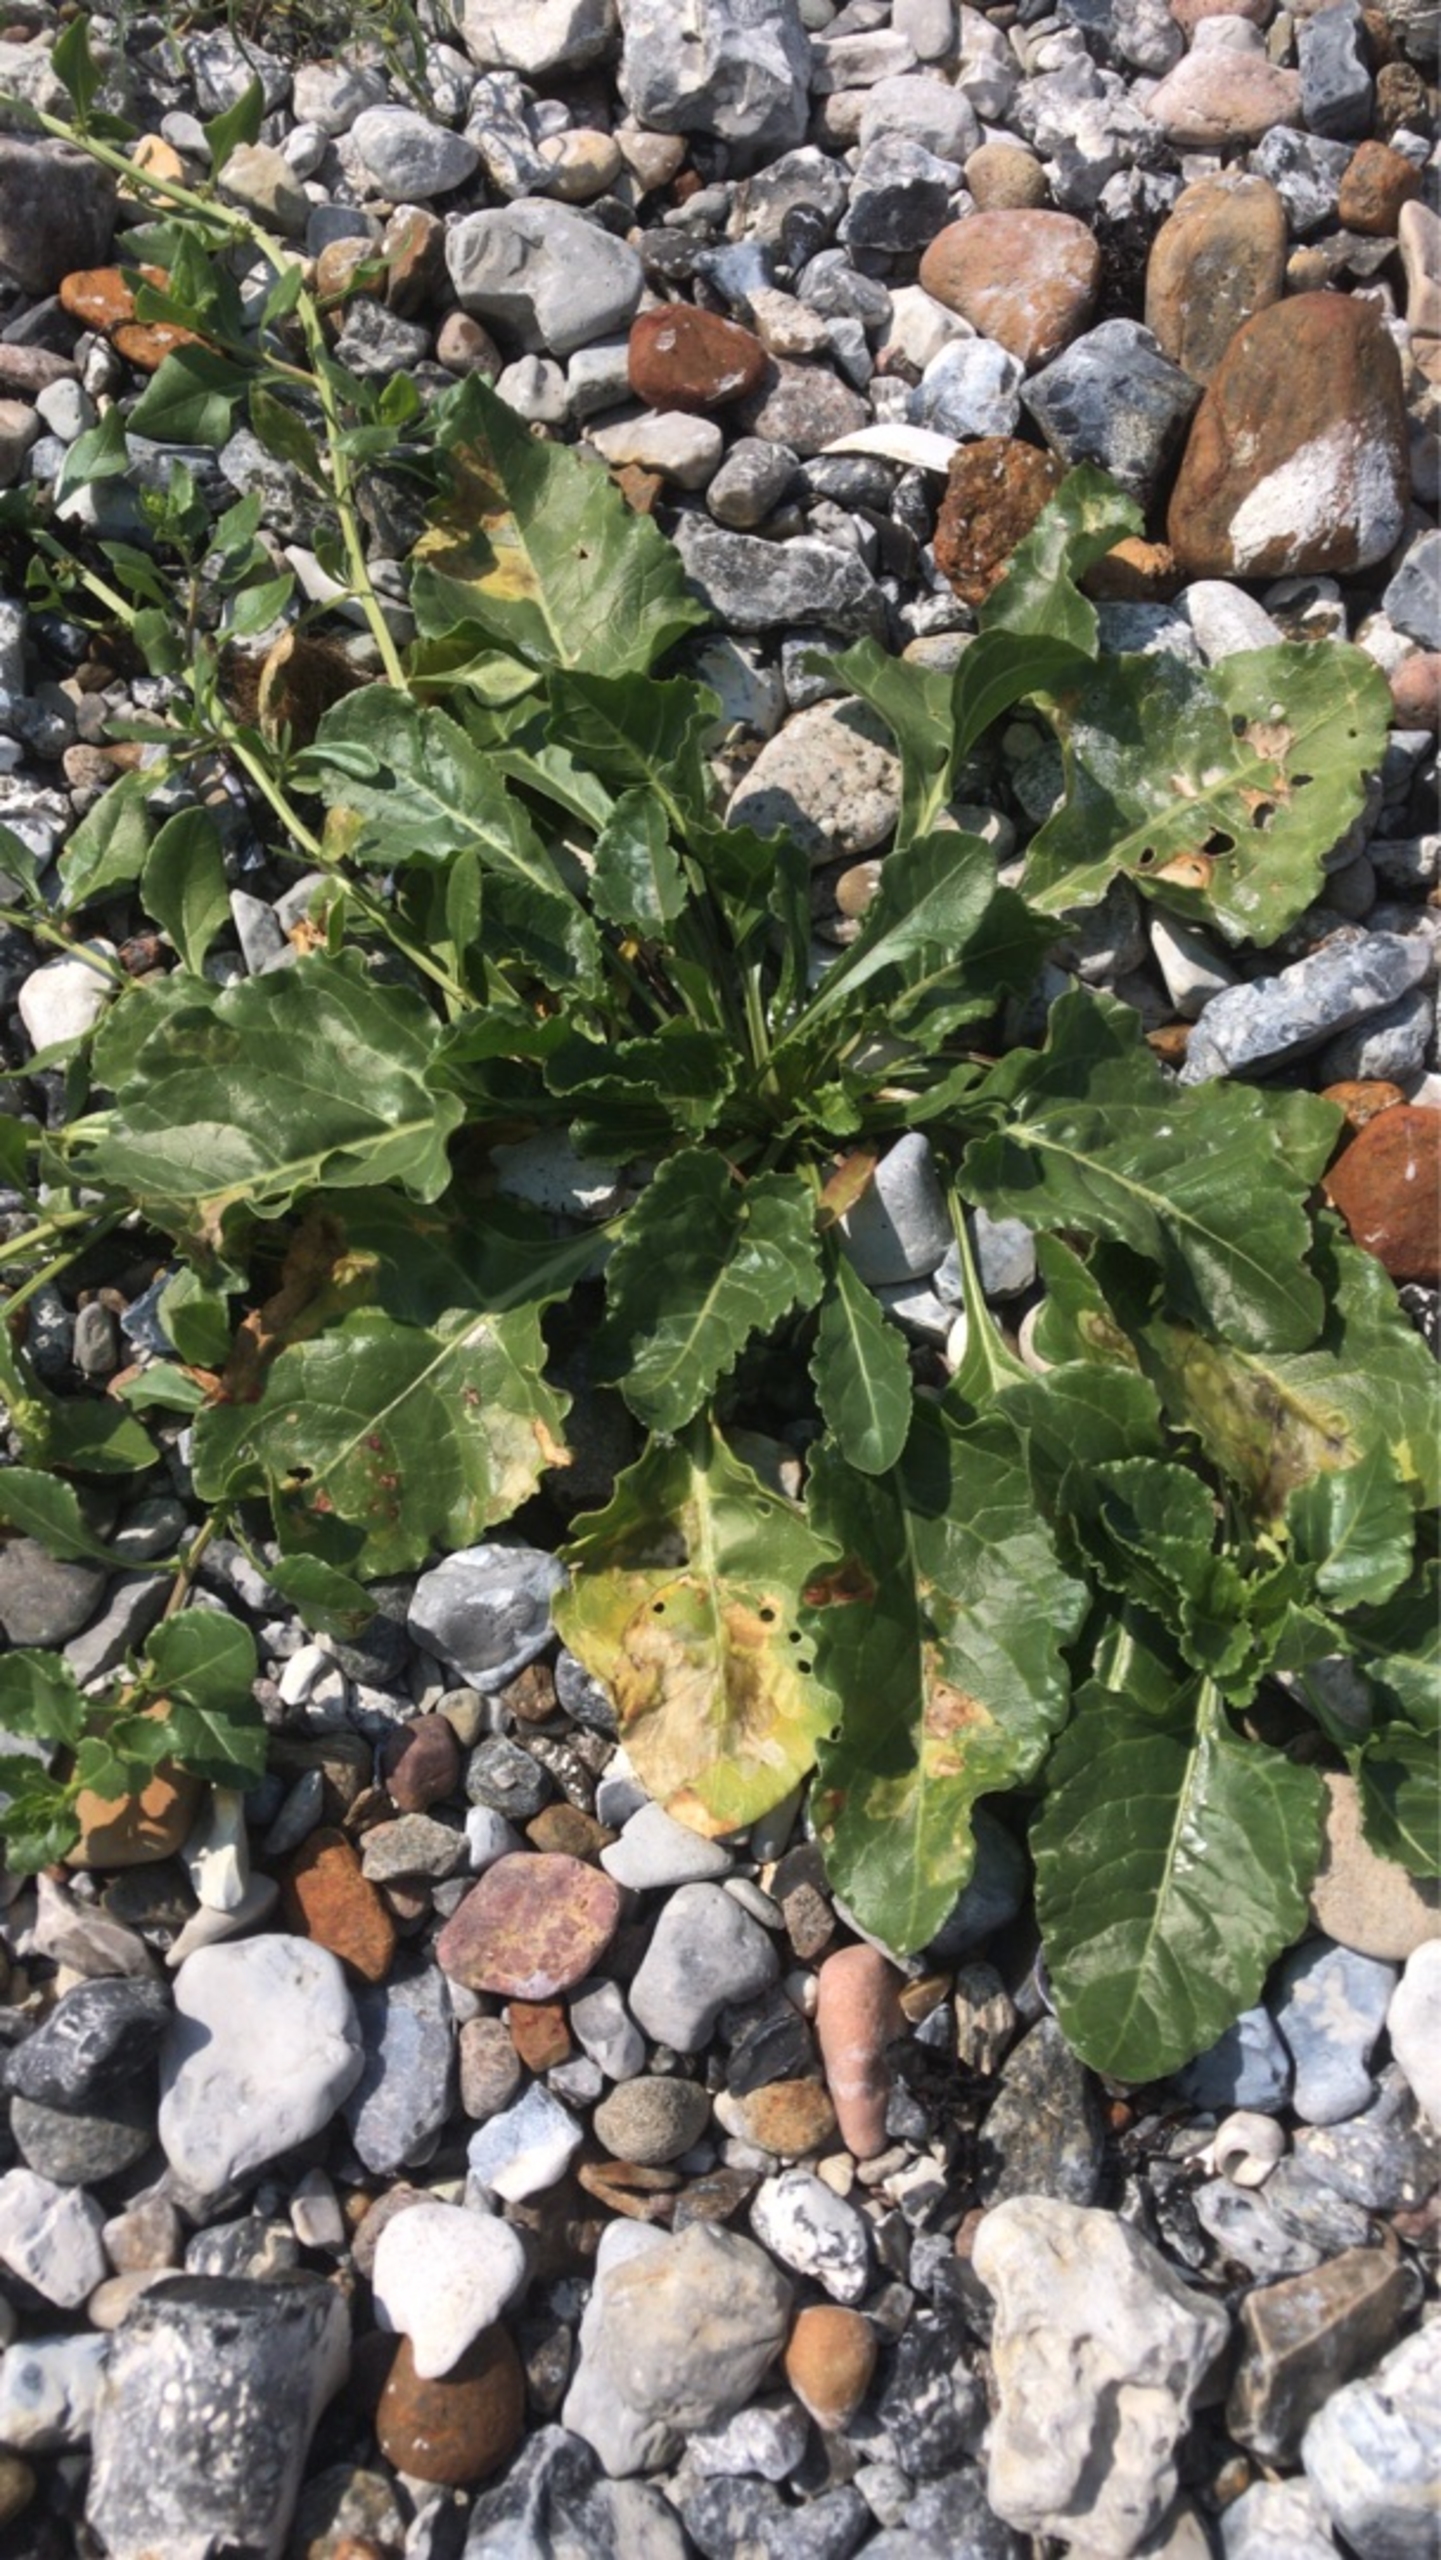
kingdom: Plantae
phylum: Tracheophyta
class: Magnoliopsida
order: Caryophyllales
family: Amaranthaceae
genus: Beta
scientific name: Beta maritima
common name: Strand-bede
